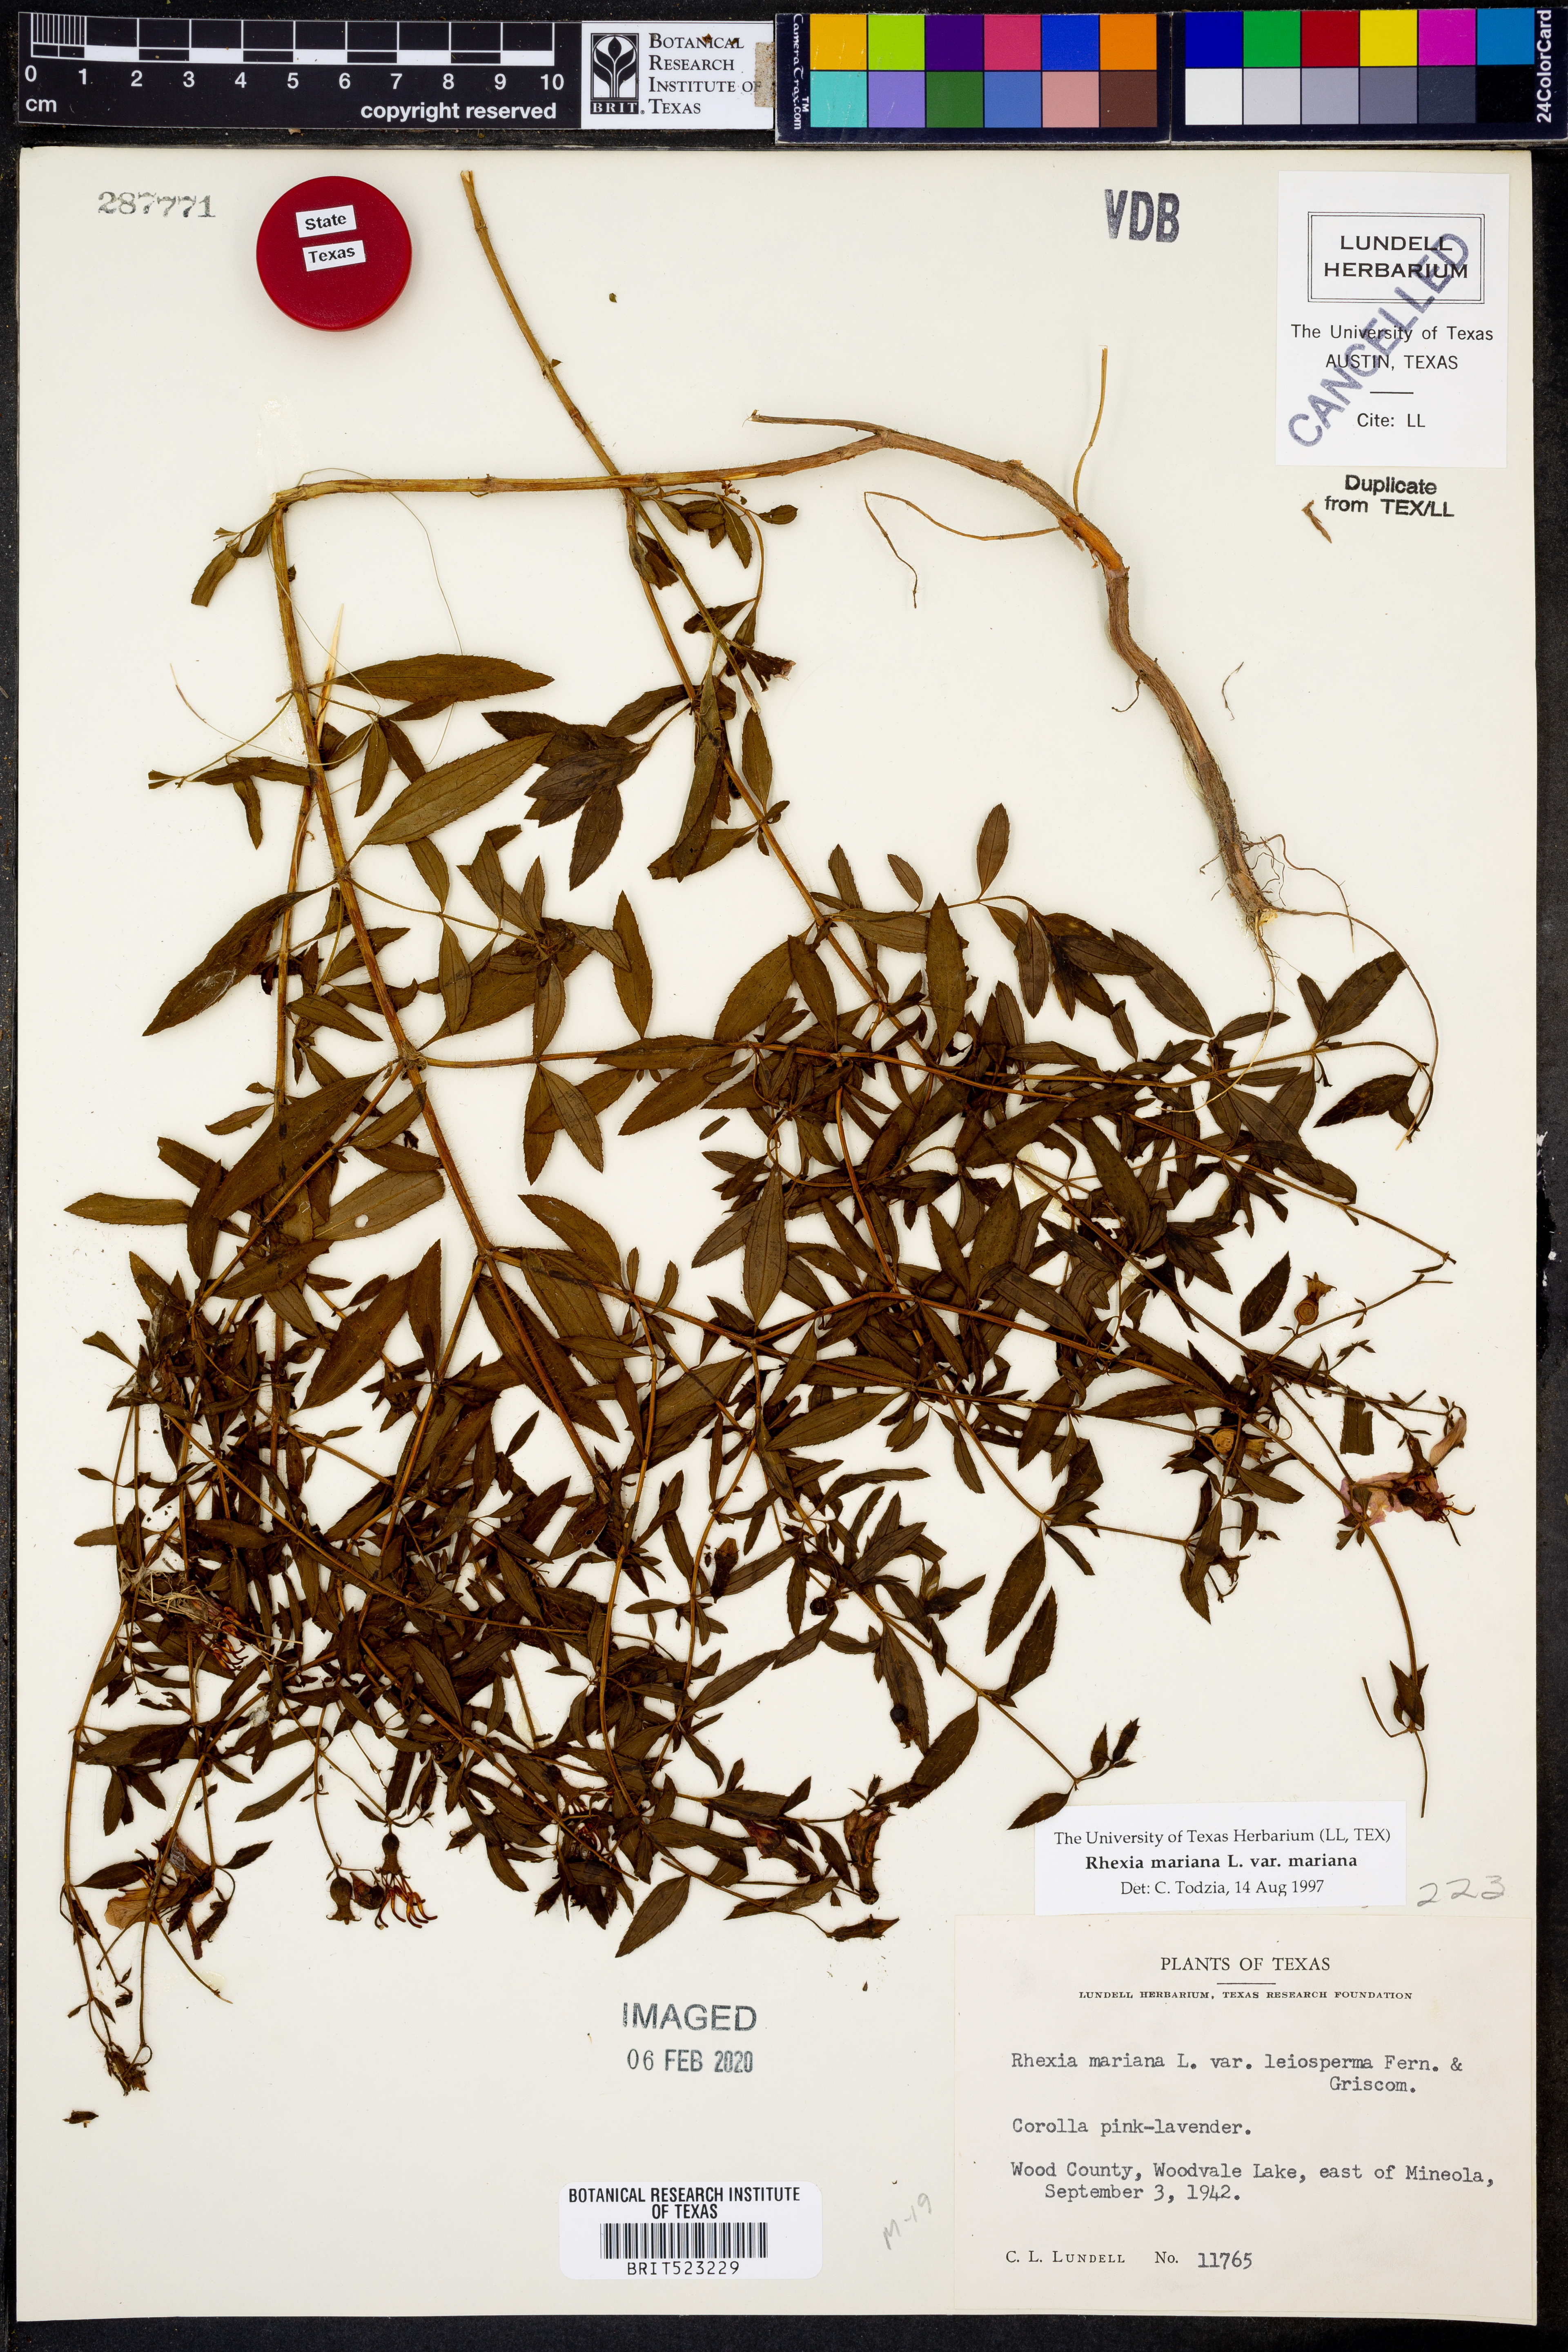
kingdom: Plantae
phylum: Tracheophyta
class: Magnoliopsida
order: Myrtales
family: Melastomataceae
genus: Rhexia
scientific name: Rhexia mariana
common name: Dull meadow-pitcher
